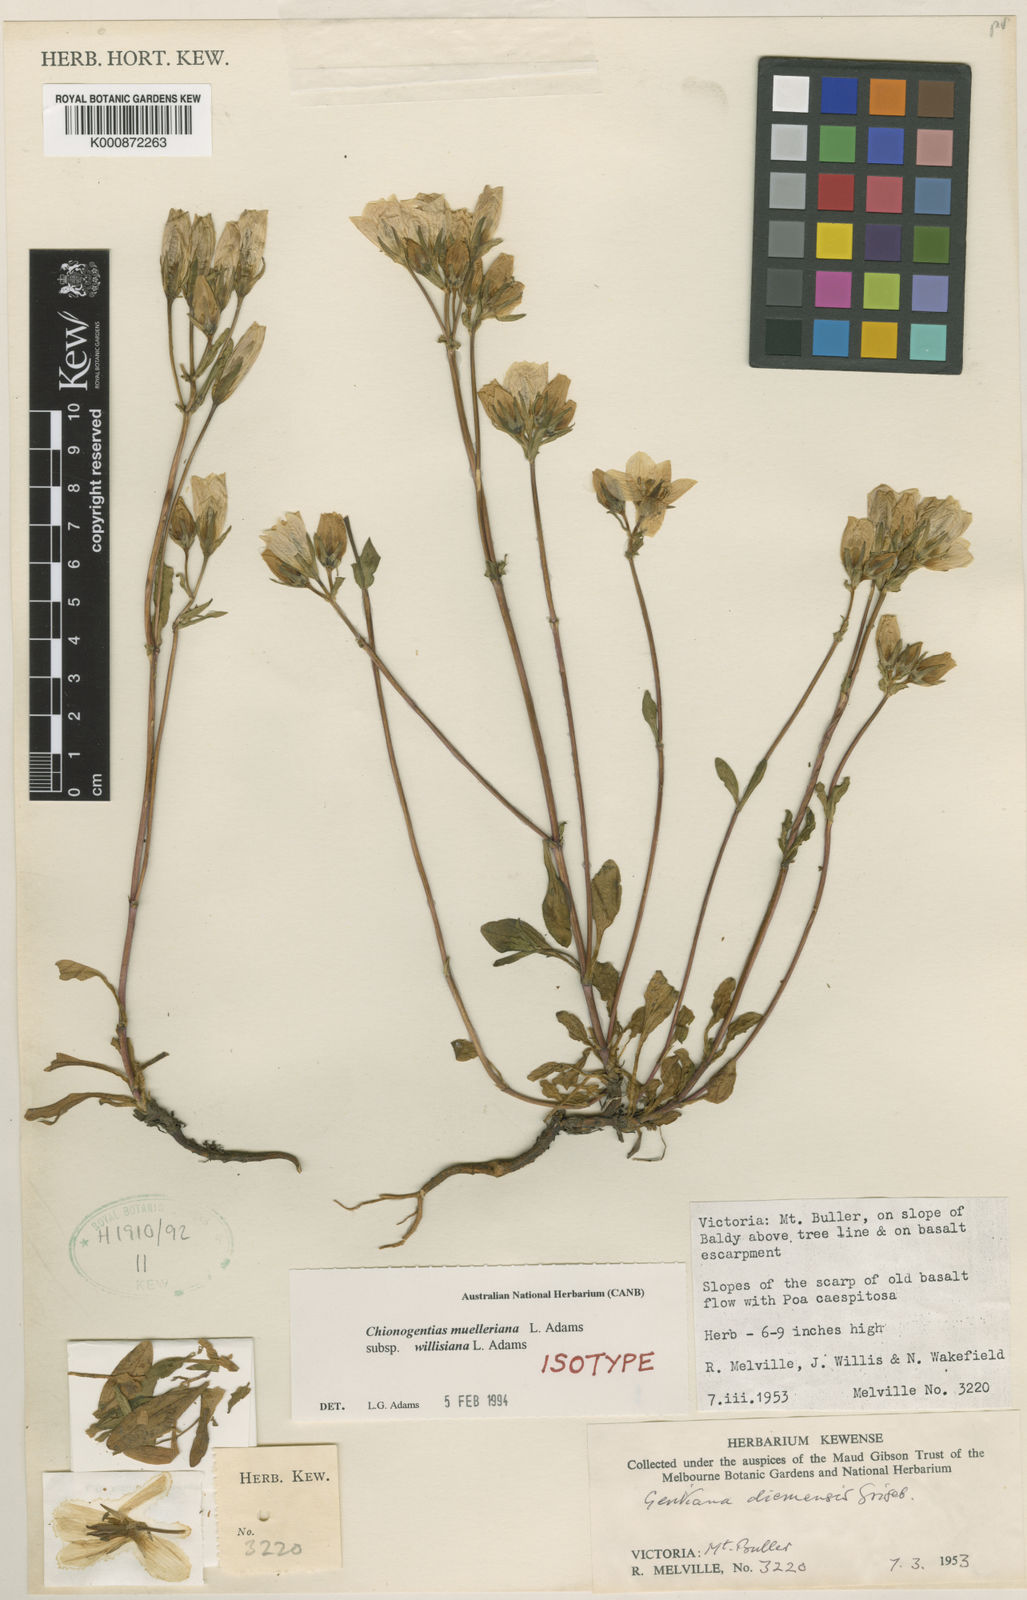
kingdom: Plantae
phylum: Tracheophyta
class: Magnoliopsida
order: Gentianales
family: Gentianaceae
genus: Gentianella
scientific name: Gentianella muelleriana
